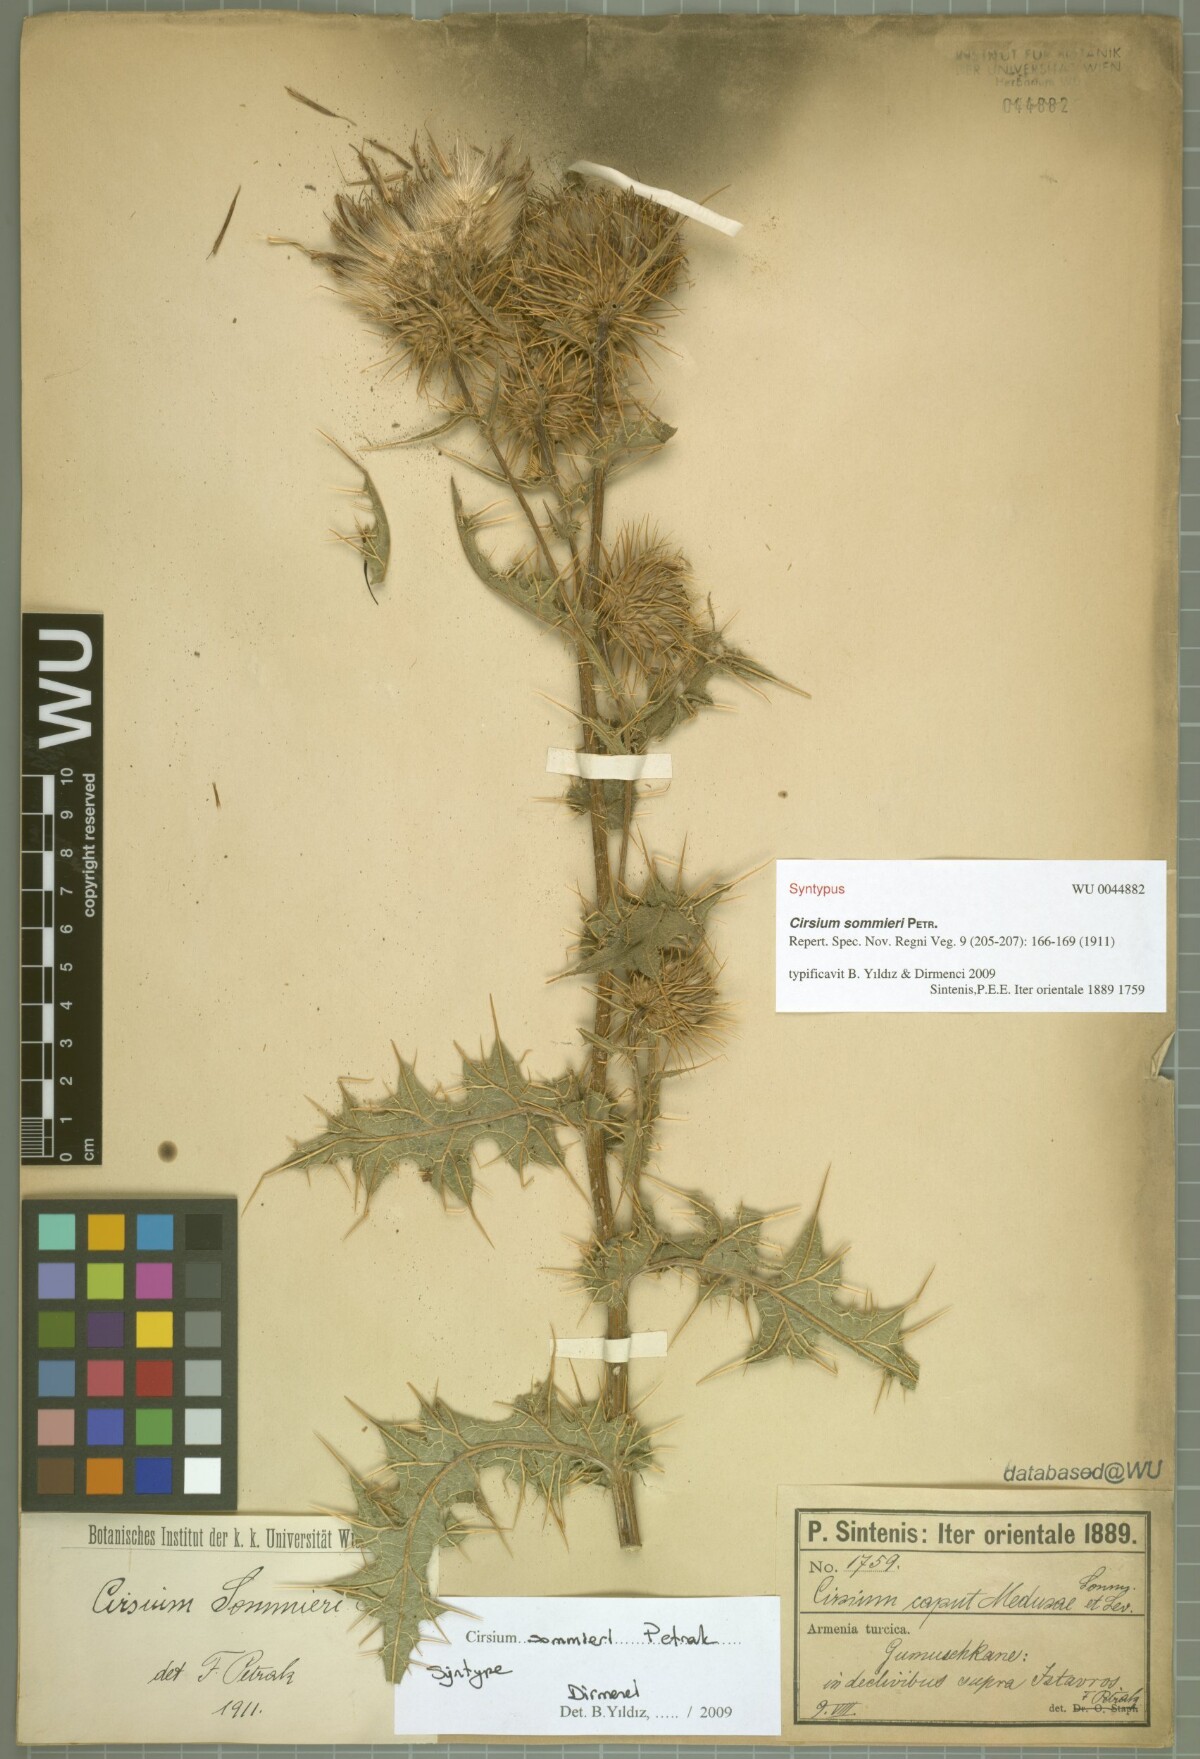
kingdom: Plantae
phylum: Tracheophyta
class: Magnoliopsida
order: Asterales
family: Asteraceae
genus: Lophiolepis
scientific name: Lophiolepis sommieri
